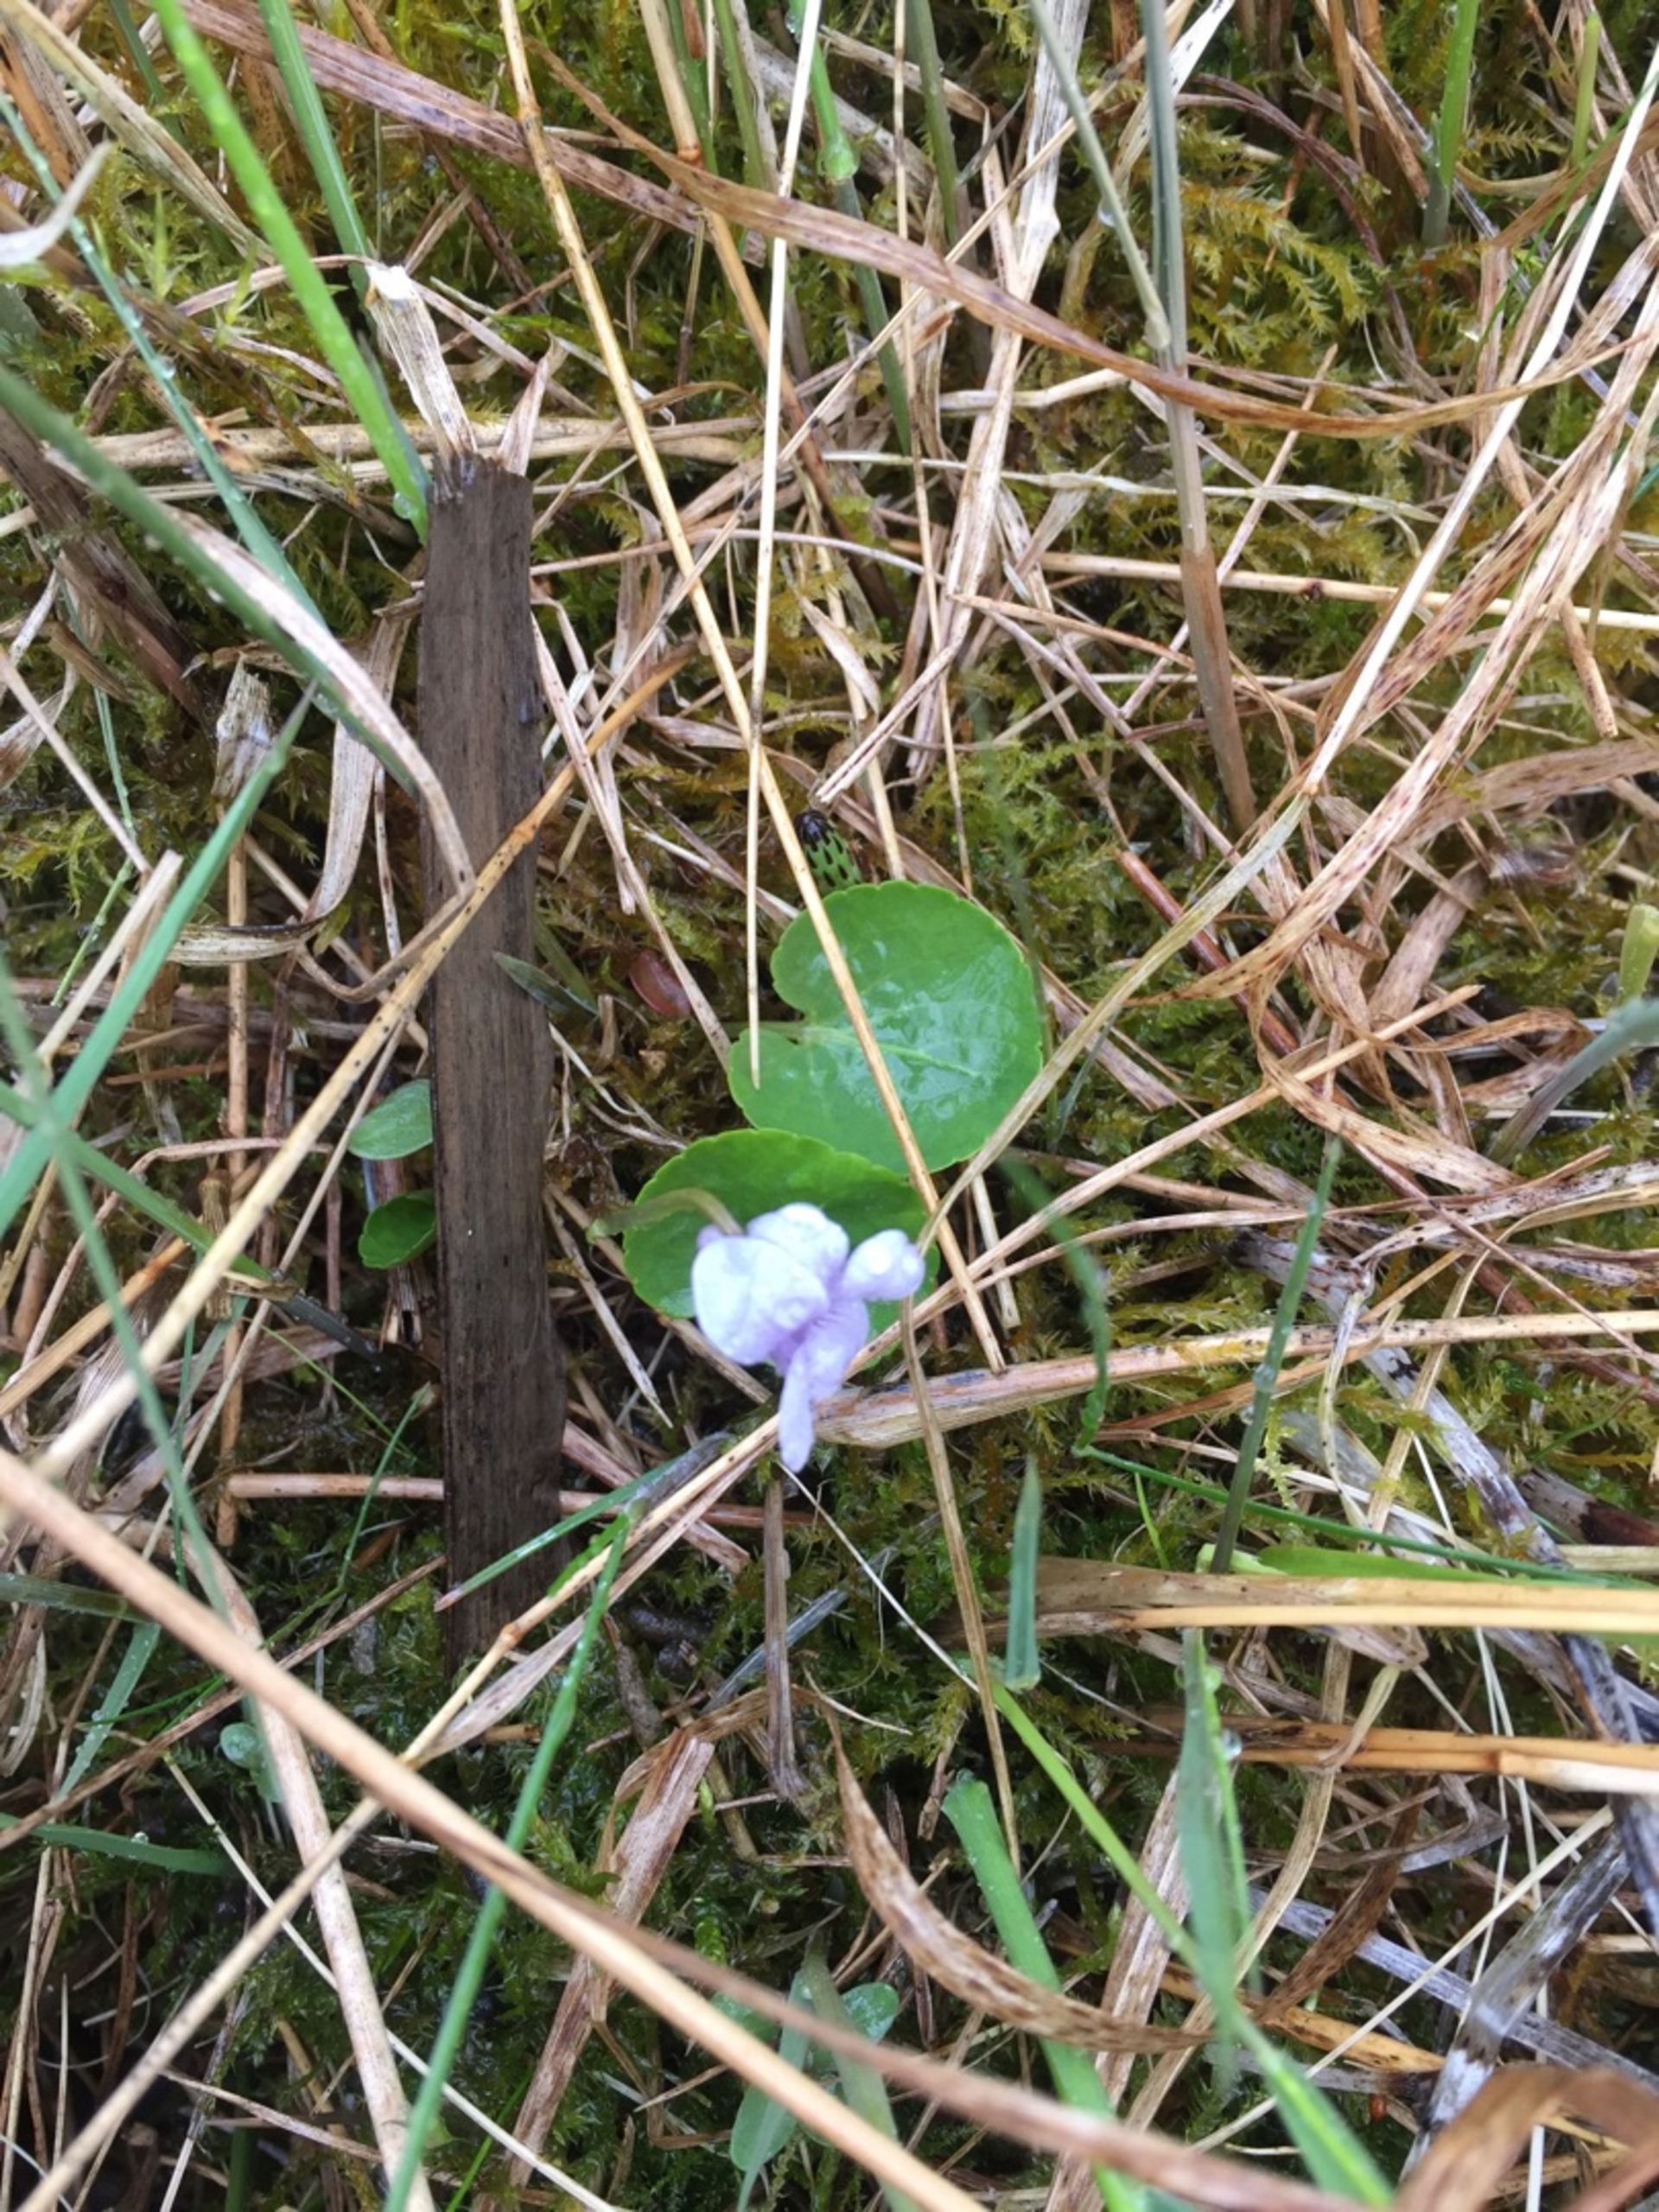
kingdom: Plantae
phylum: Tracheophyta
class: Magnoliopsida
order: Malpighiales
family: Violaceae
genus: Viola
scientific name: Viola palustris
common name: Eng-viol
